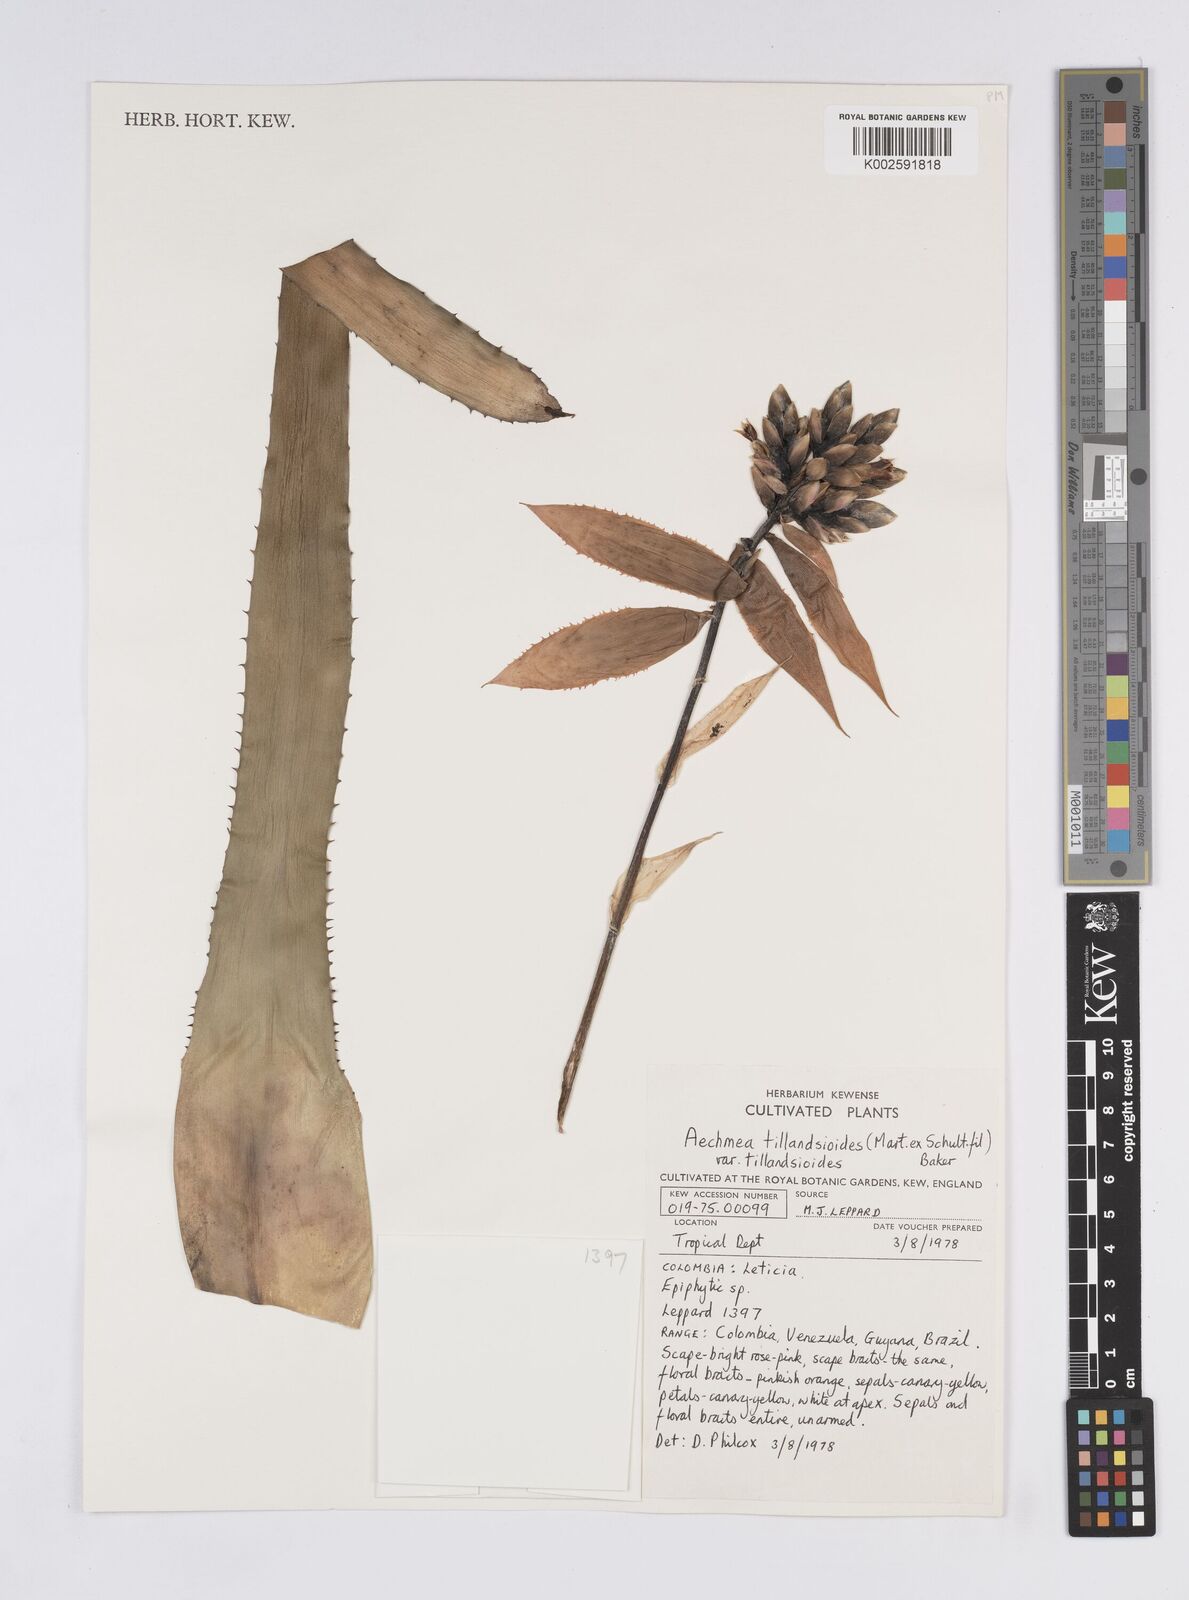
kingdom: Plantae
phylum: Tracheophyta
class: Liliopsida
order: Poales
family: Bromeliaceae
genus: Aechmea
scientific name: Aechmea tillandsioides
